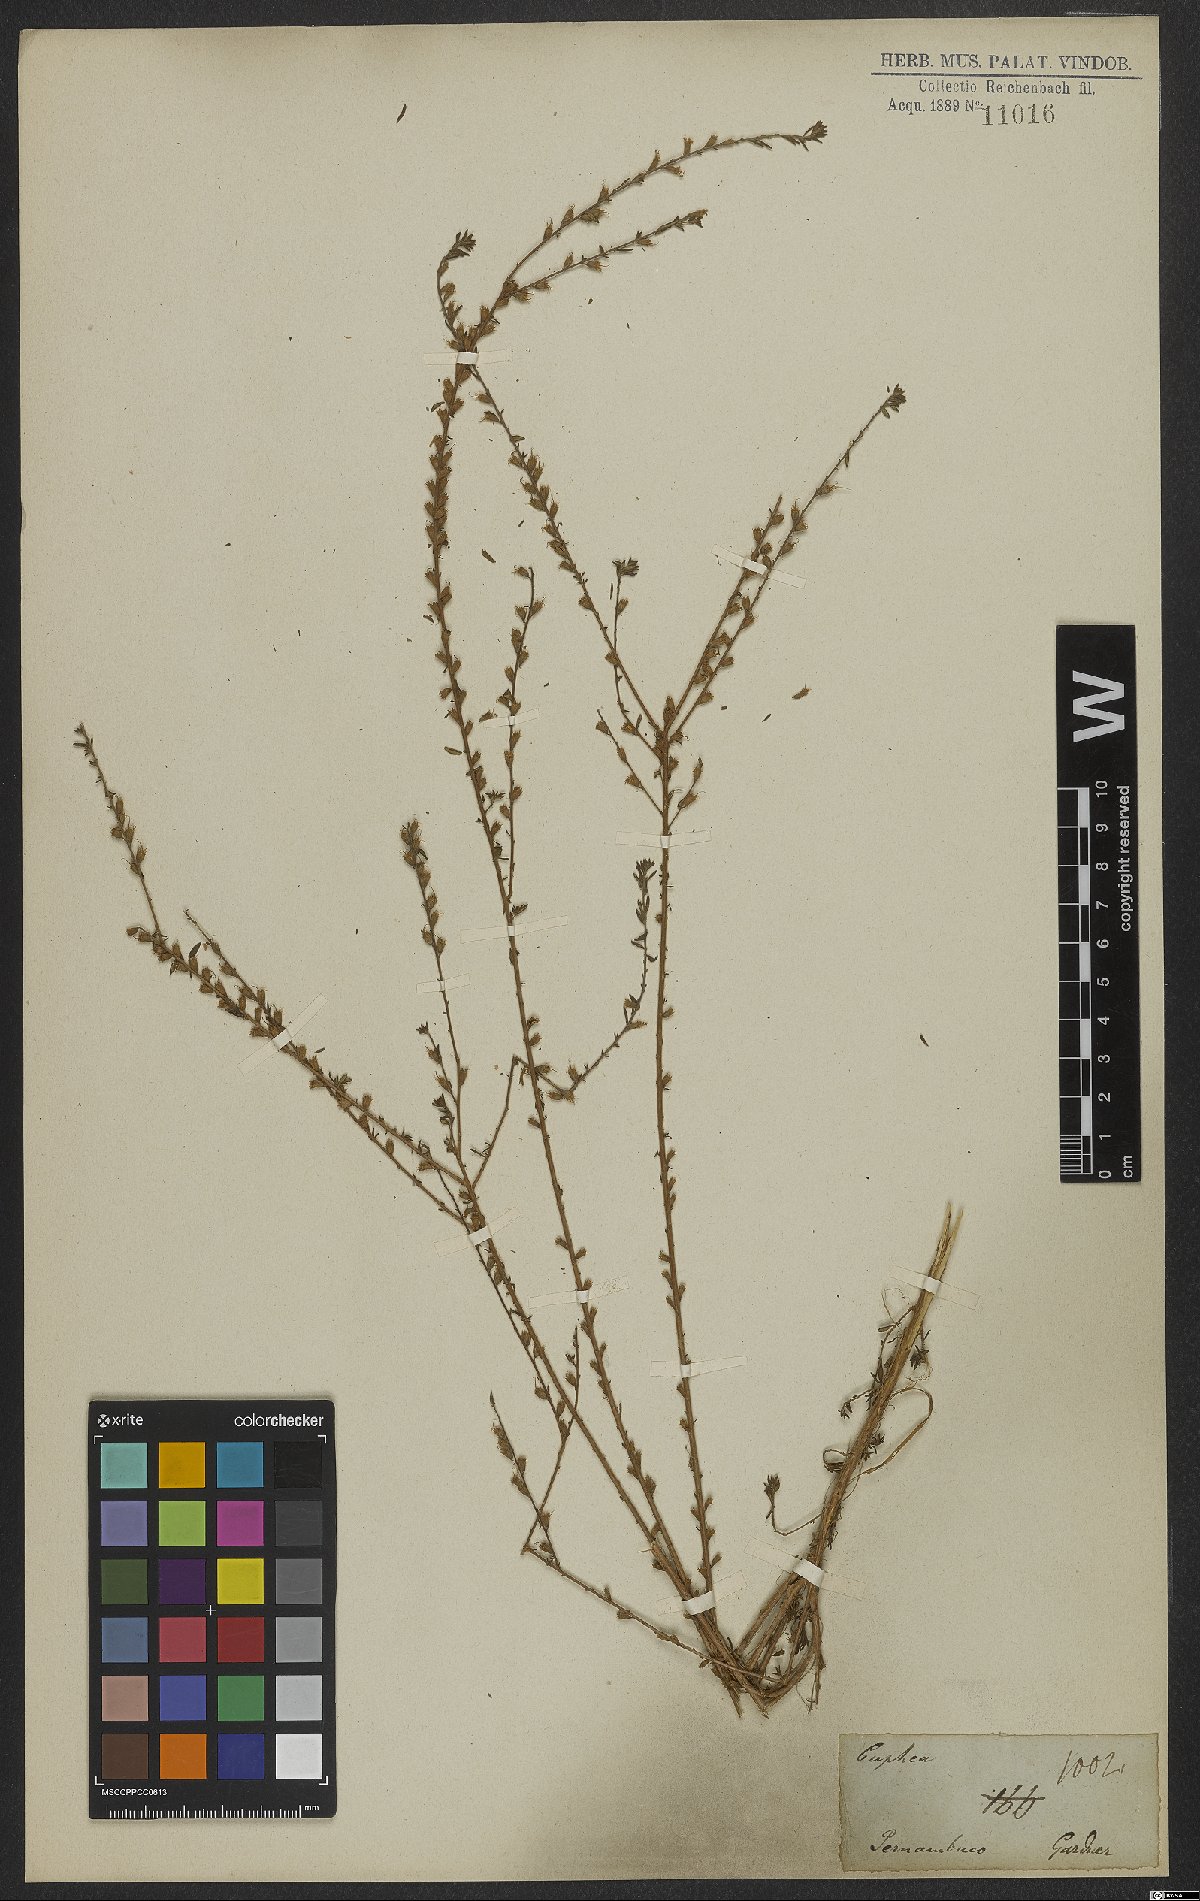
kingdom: Plantae
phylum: Tracheophyta
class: Magnoliopsida
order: Myrtales
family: Lythraceae
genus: Pleurophora
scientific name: Pleurophora anomala
